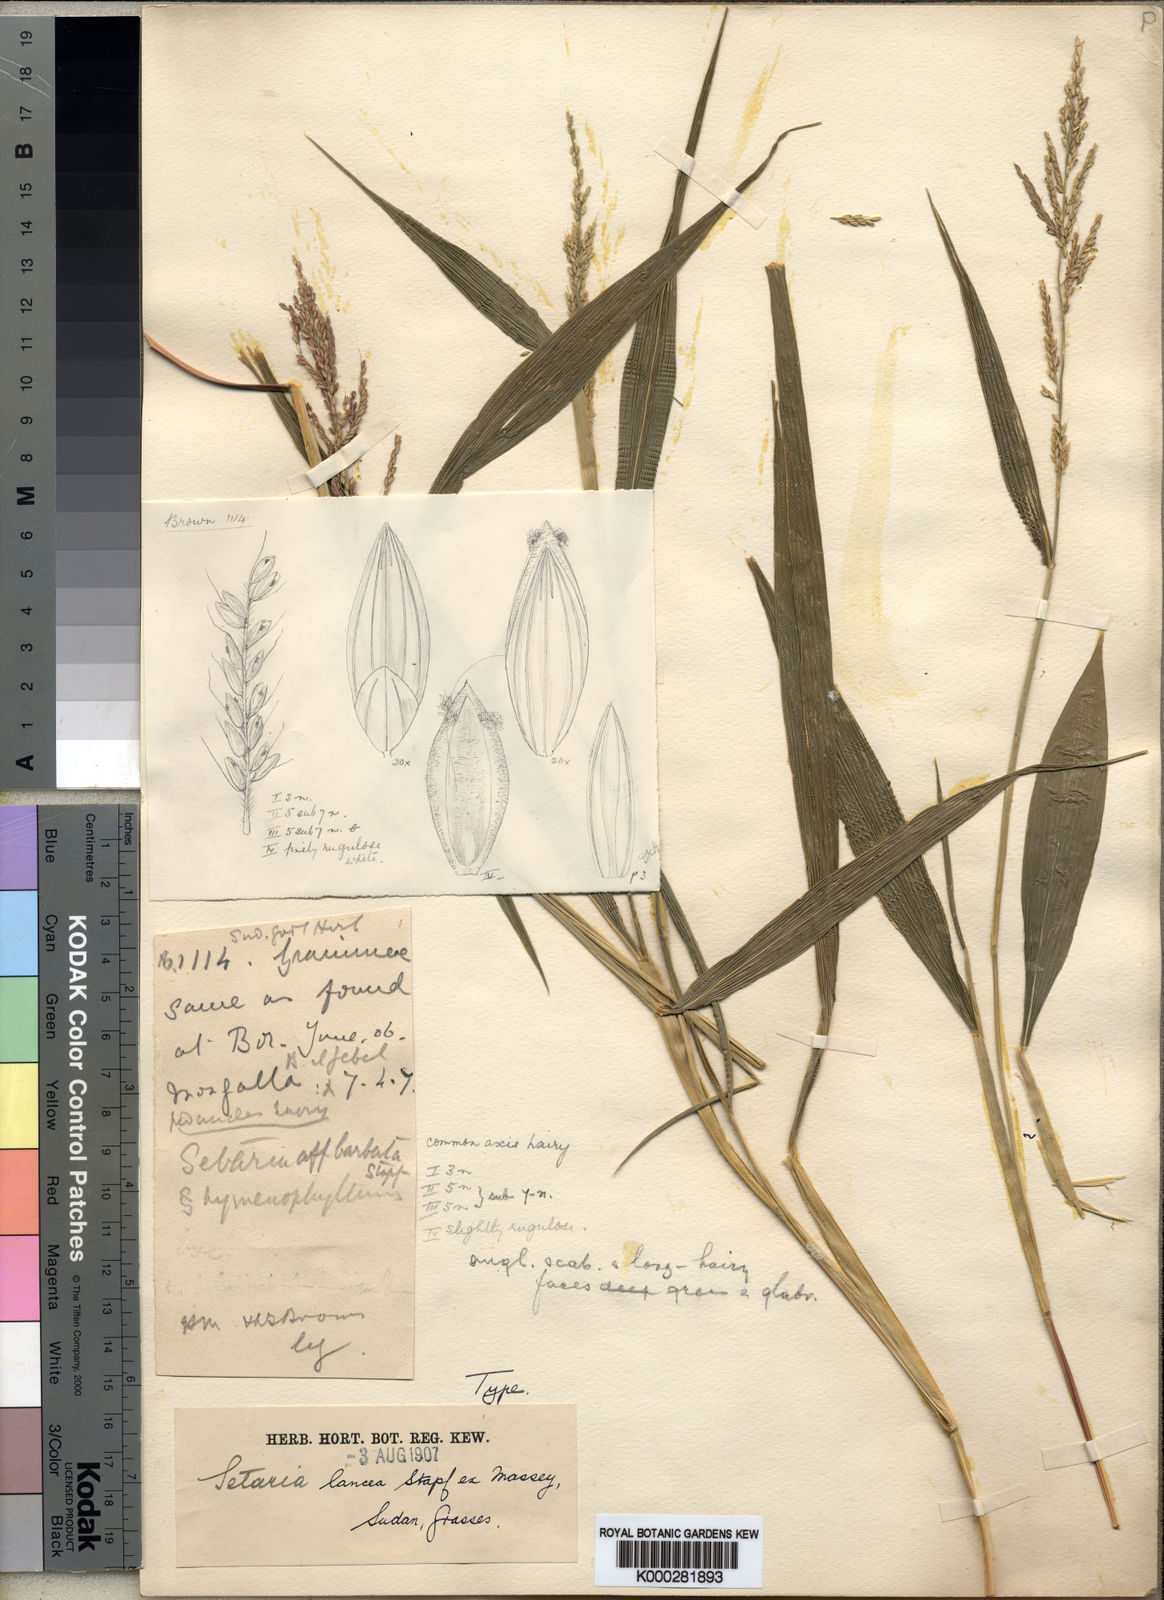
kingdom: Plantae
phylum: Tracheophyta
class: Liliopsida
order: Poales
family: Poaceae
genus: Setaria
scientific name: Setaria homonyma
